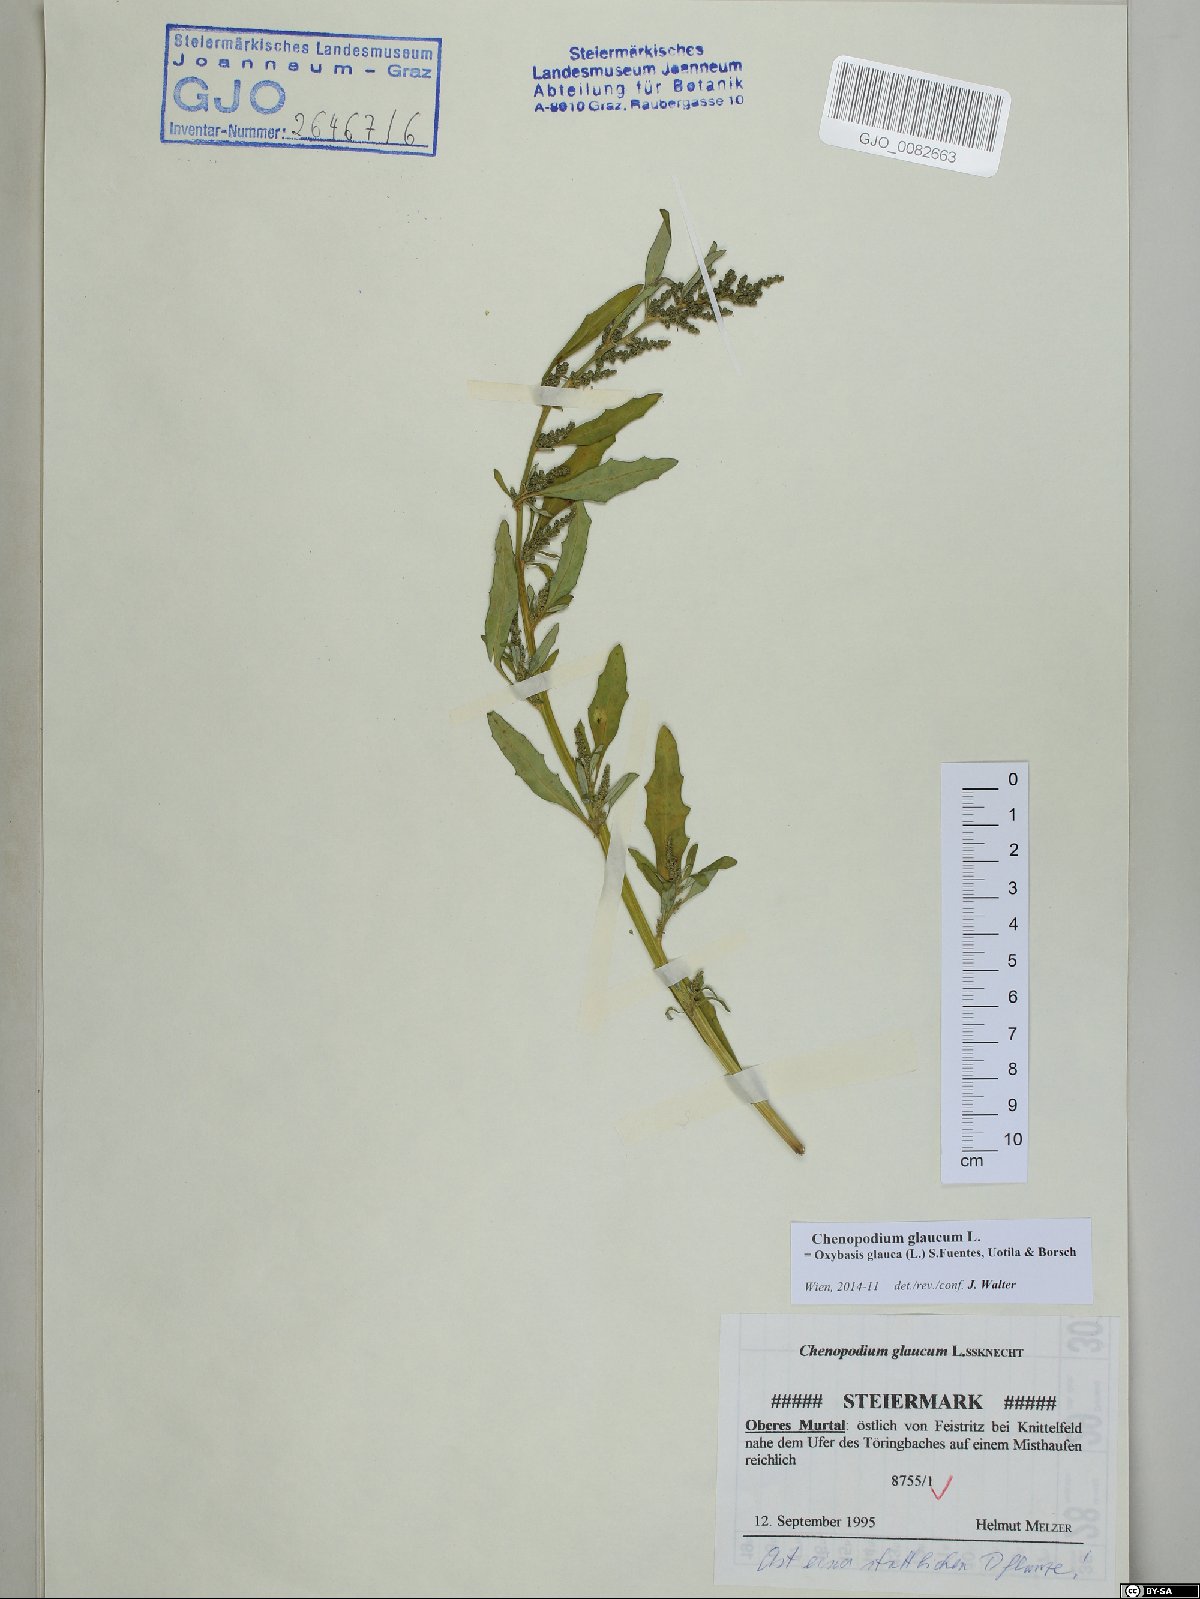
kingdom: Plantae
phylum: Tracheophyta
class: Magnoliopsida
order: Caryophyllales
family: Amaranthaceae
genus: Oxybasis
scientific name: Oxybasis glauca
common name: Glaucous goosefoot
